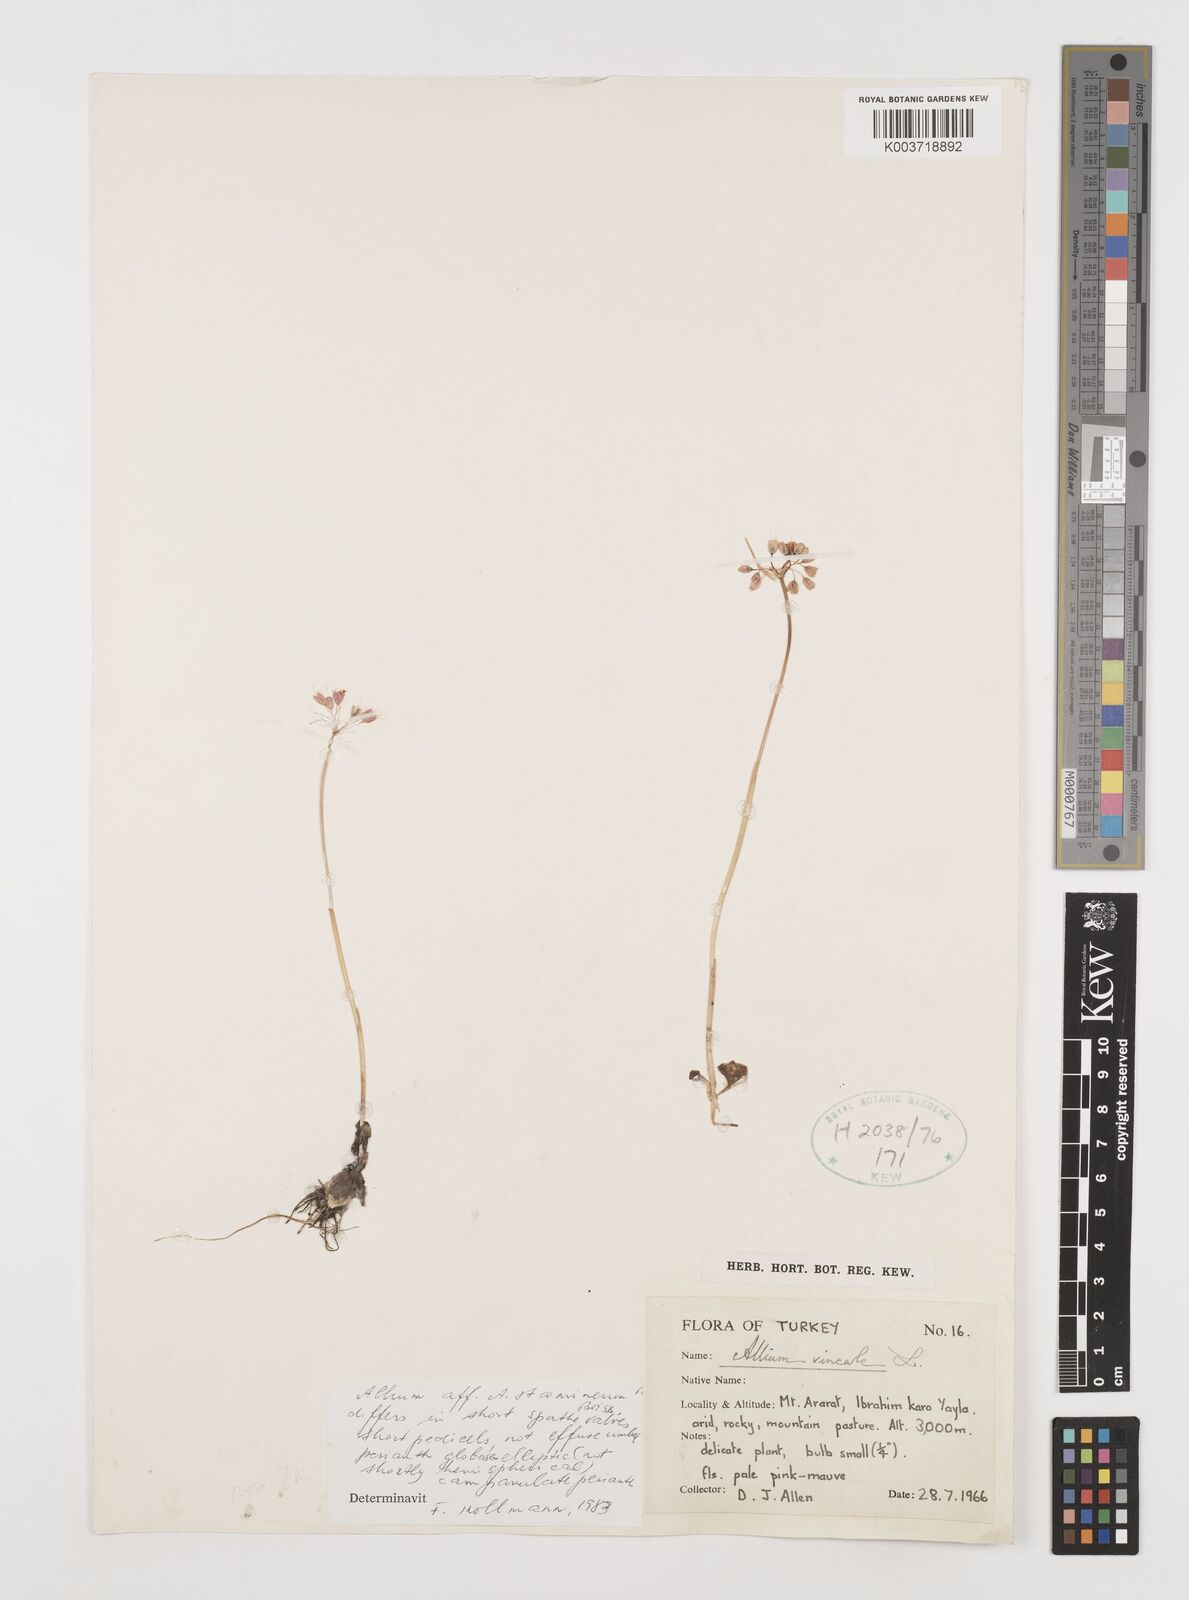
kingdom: Plantae
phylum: Tracheophyta
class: Liliopsida
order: Asparagales
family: Amaryllidaceae
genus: Allium
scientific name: Allium stamineum
